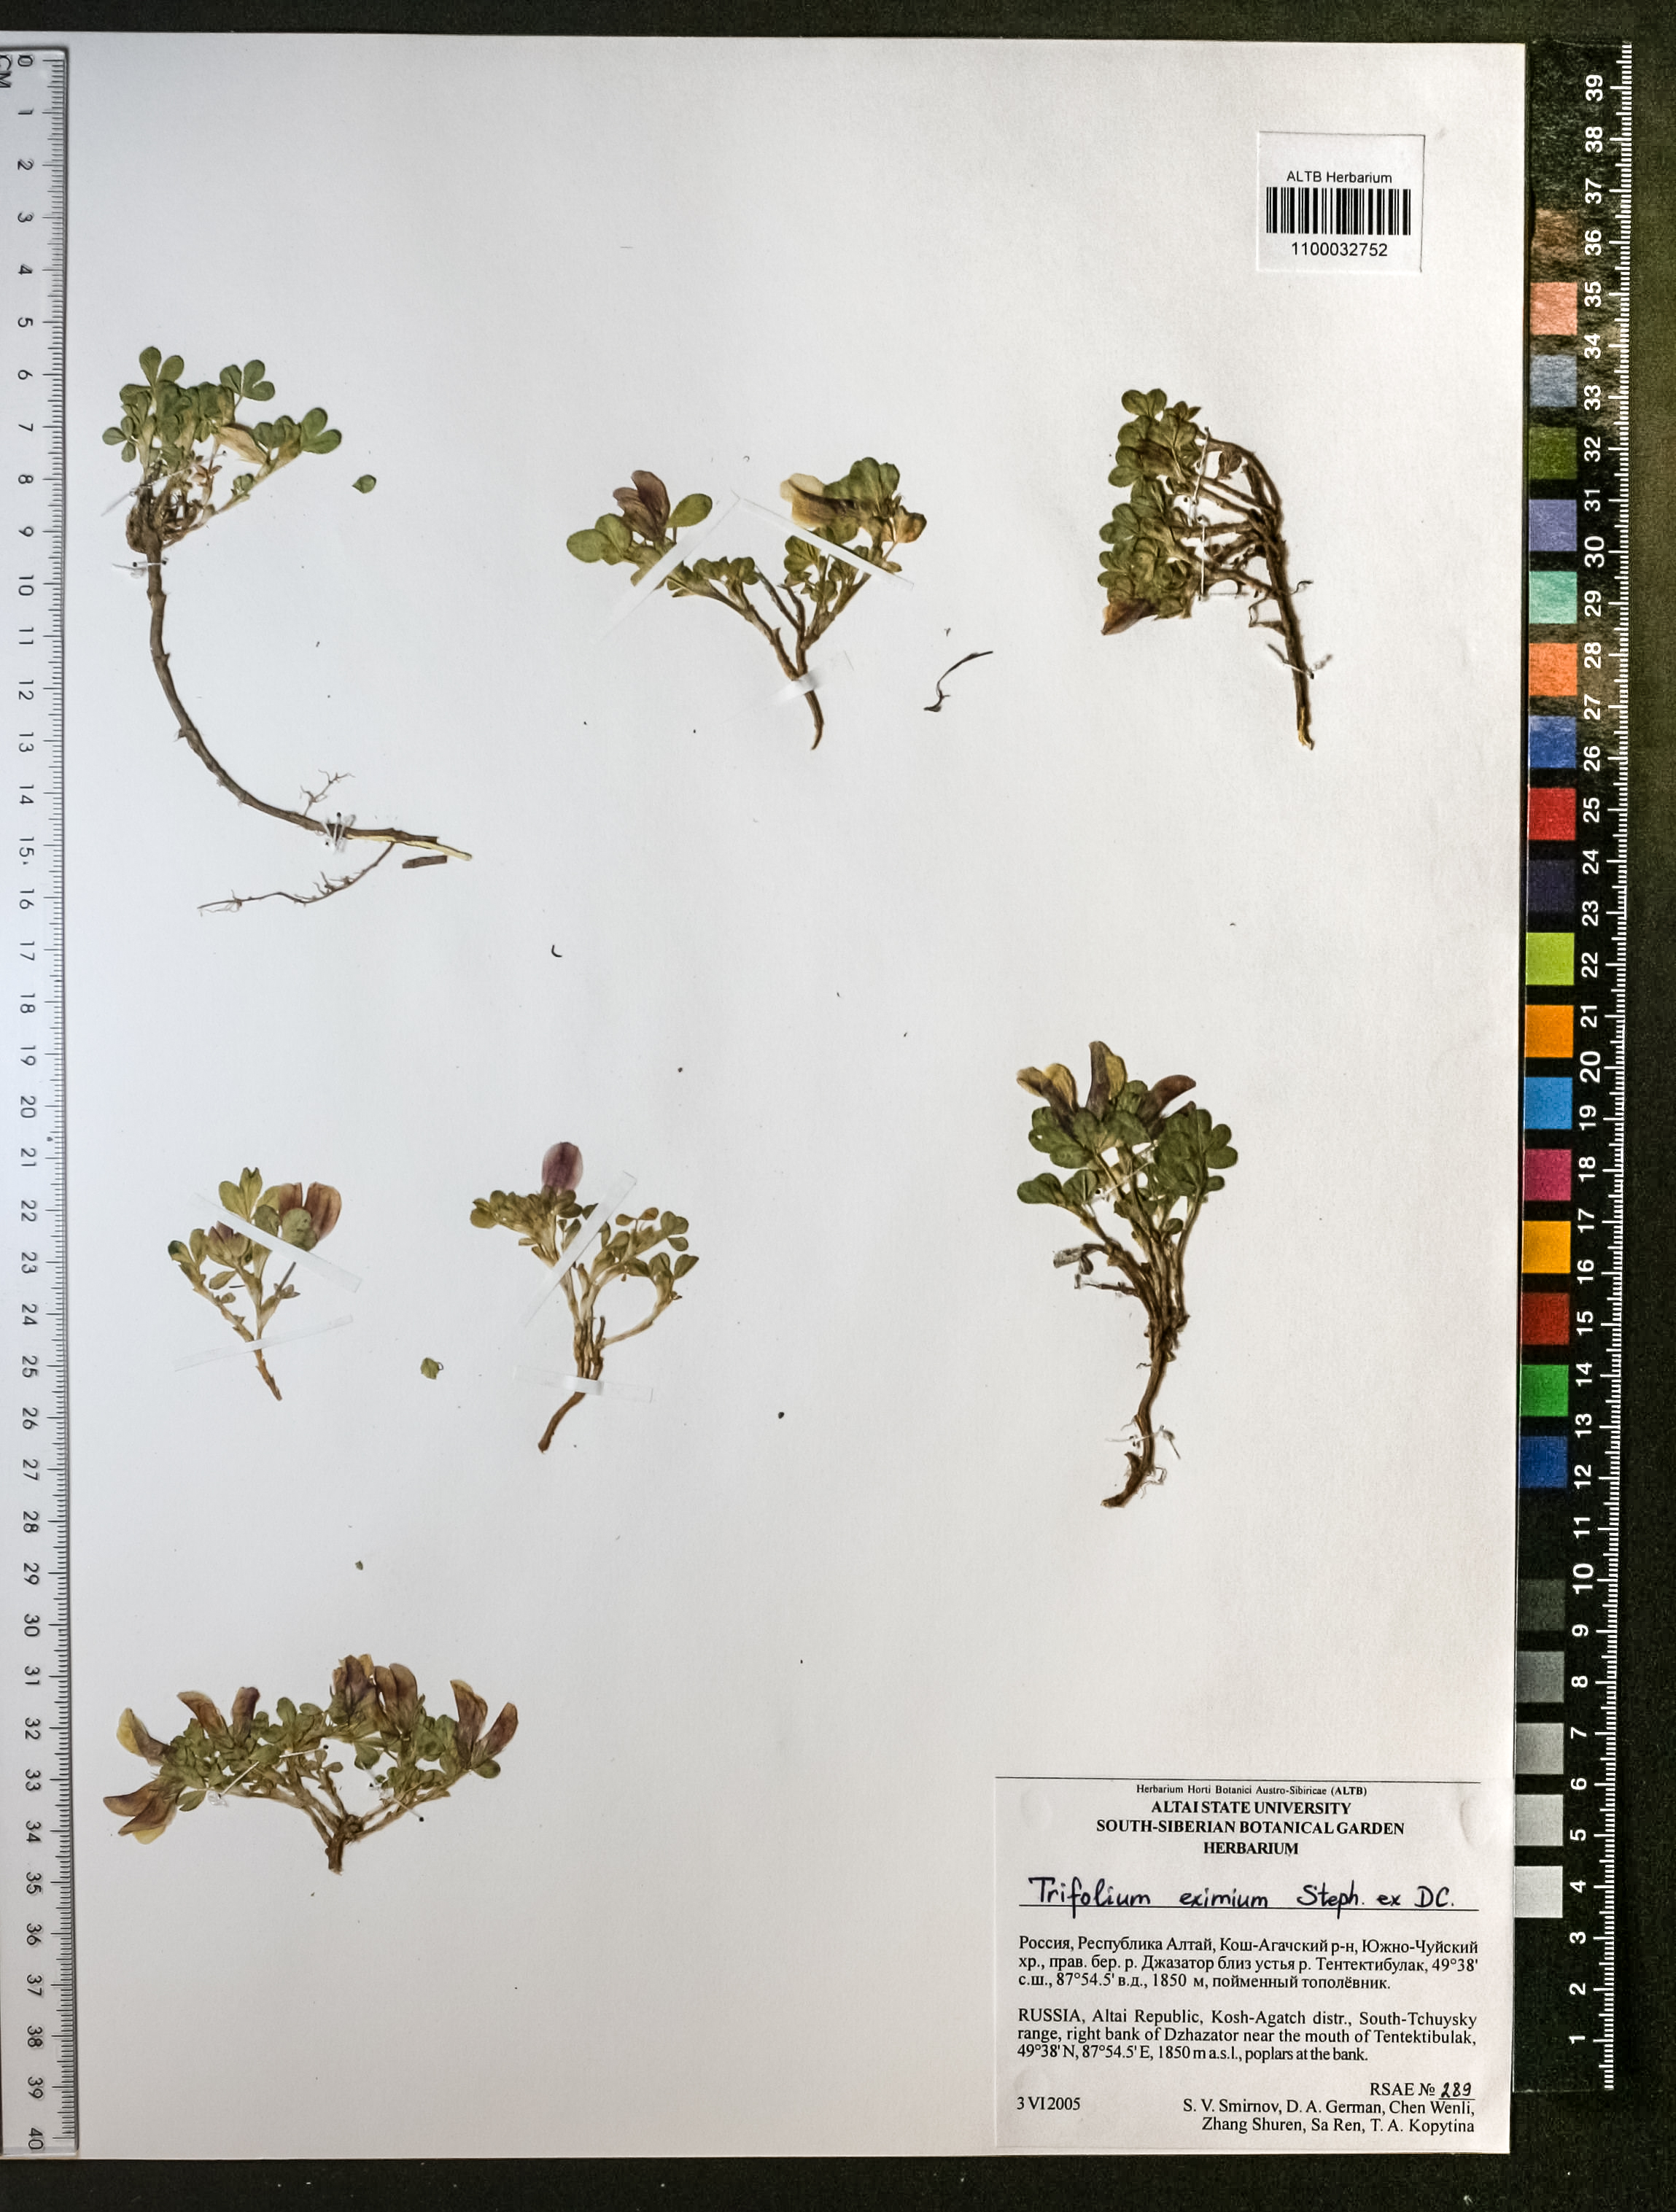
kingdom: Plantae
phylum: Tracheophyta
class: Magnoliopsida
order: Fabales
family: Fabaceae
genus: Trifolium
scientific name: Trifolium eximium
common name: Excellent clover
